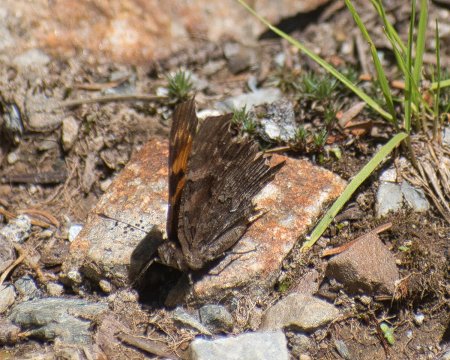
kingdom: Animalia
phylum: Arthropoda
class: Insecta
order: Lepidoptera
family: Nymphalidae
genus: Polygonia
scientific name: Polygonia faunus
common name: Green Comma
